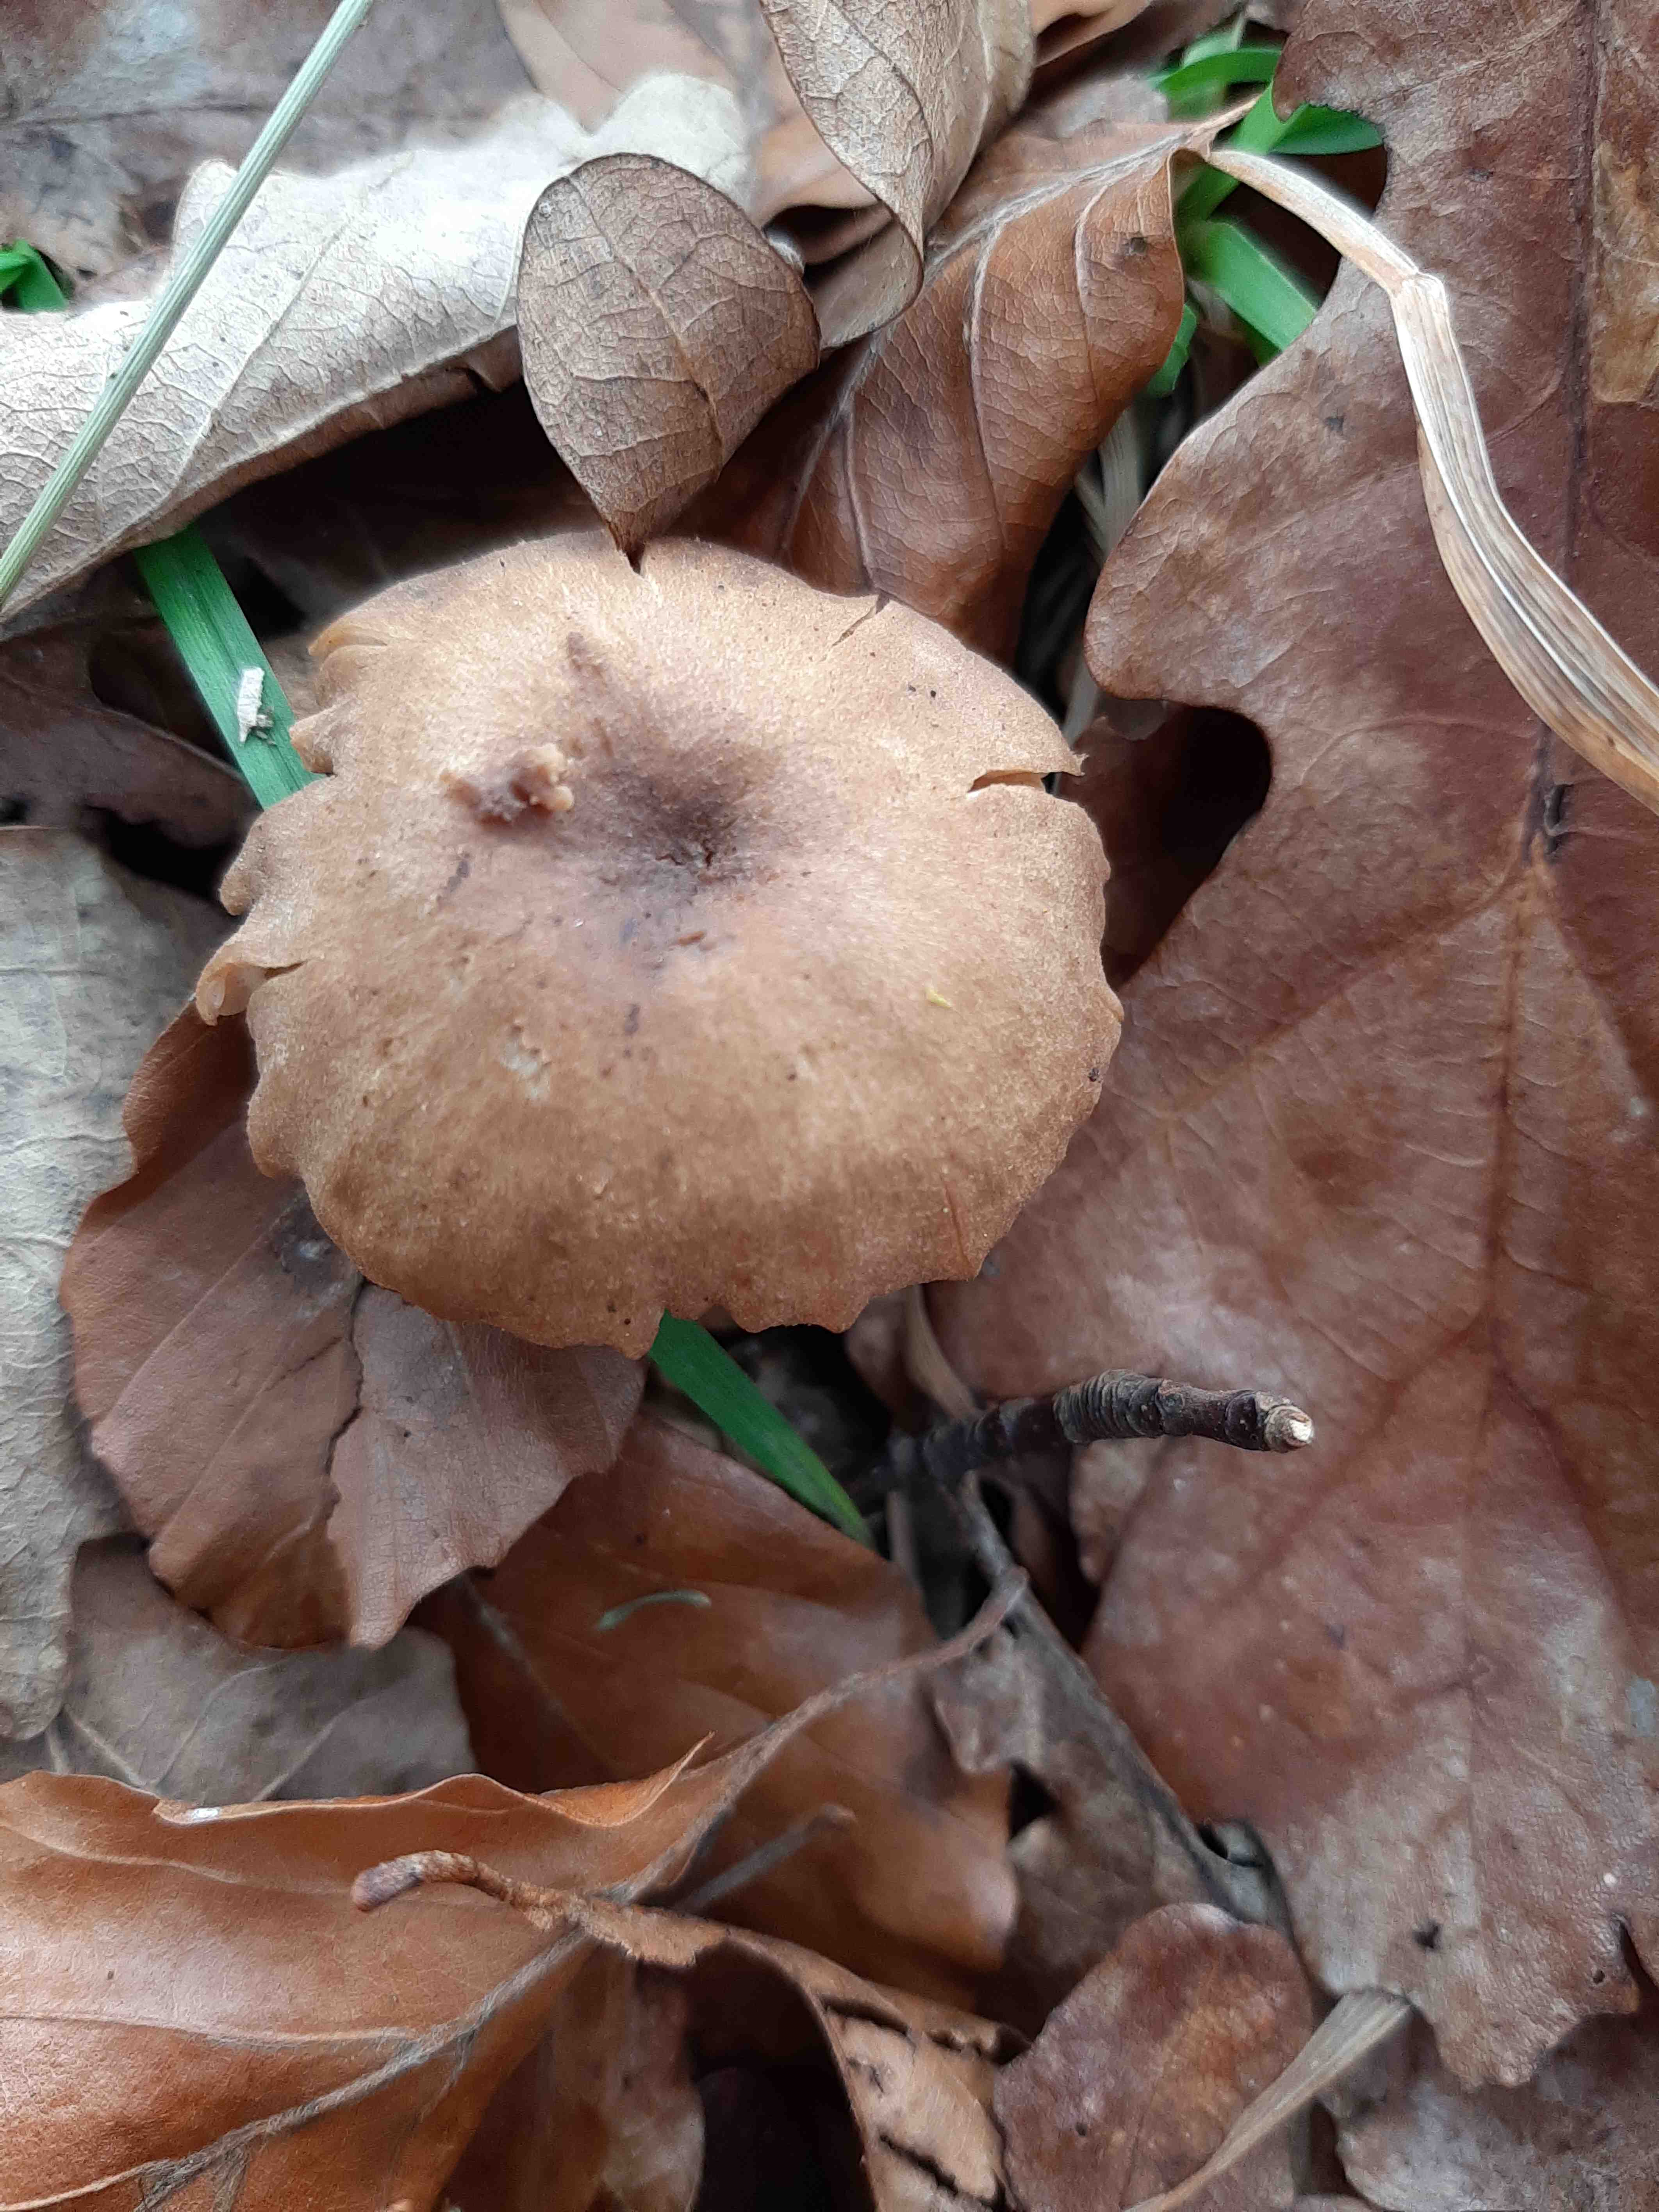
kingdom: Fungi
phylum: Basidiomycota
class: Agaricomycetes
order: Agaricales
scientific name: Agaricales
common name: champignonordenen
